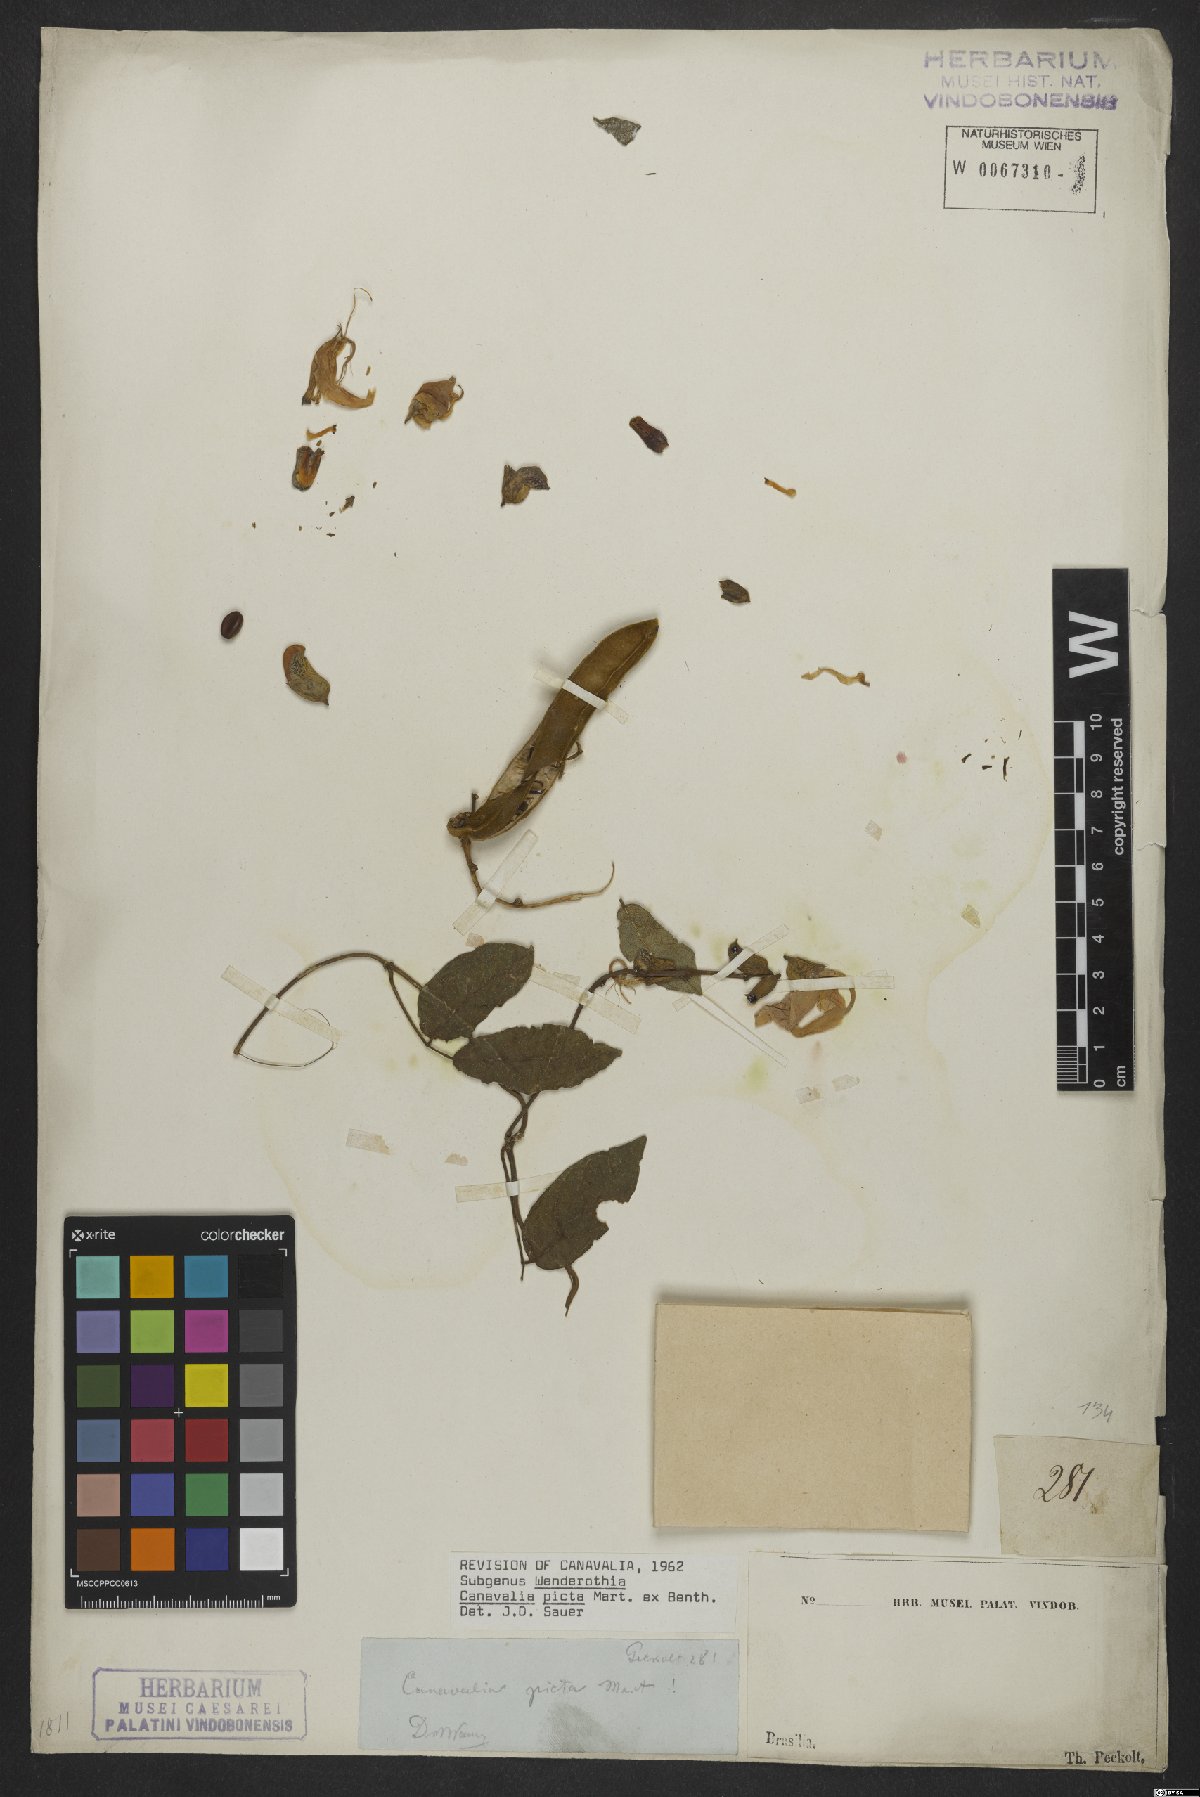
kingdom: Plantae
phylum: Tracheophyta
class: Magnoliopsida
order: Fabales
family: Fabaceae
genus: Canavalia
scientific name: Canavalia picta
